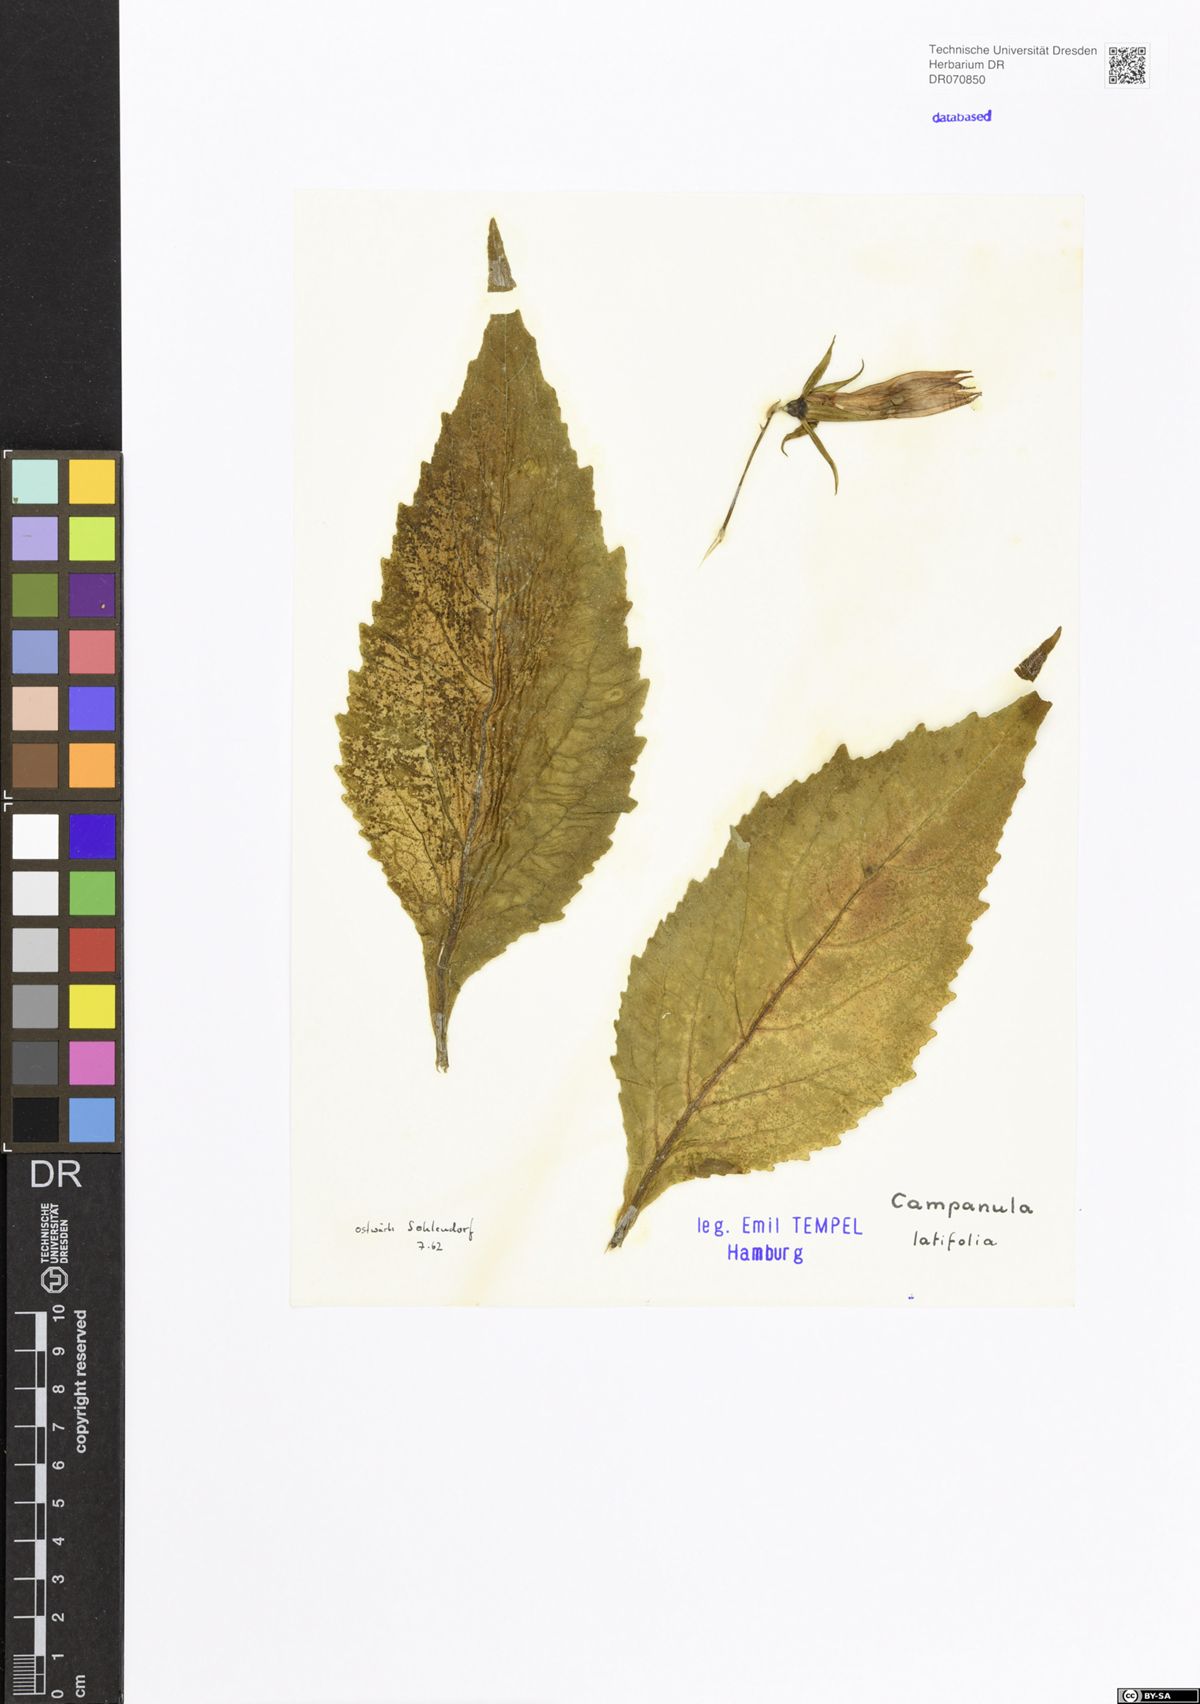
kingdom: Plantae
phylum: Tracheophyta
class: Magnoliopsida
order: Asterales
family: Campanulaceae
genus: Campanula
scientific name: Campanula latifolia
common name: Giant bellflower
